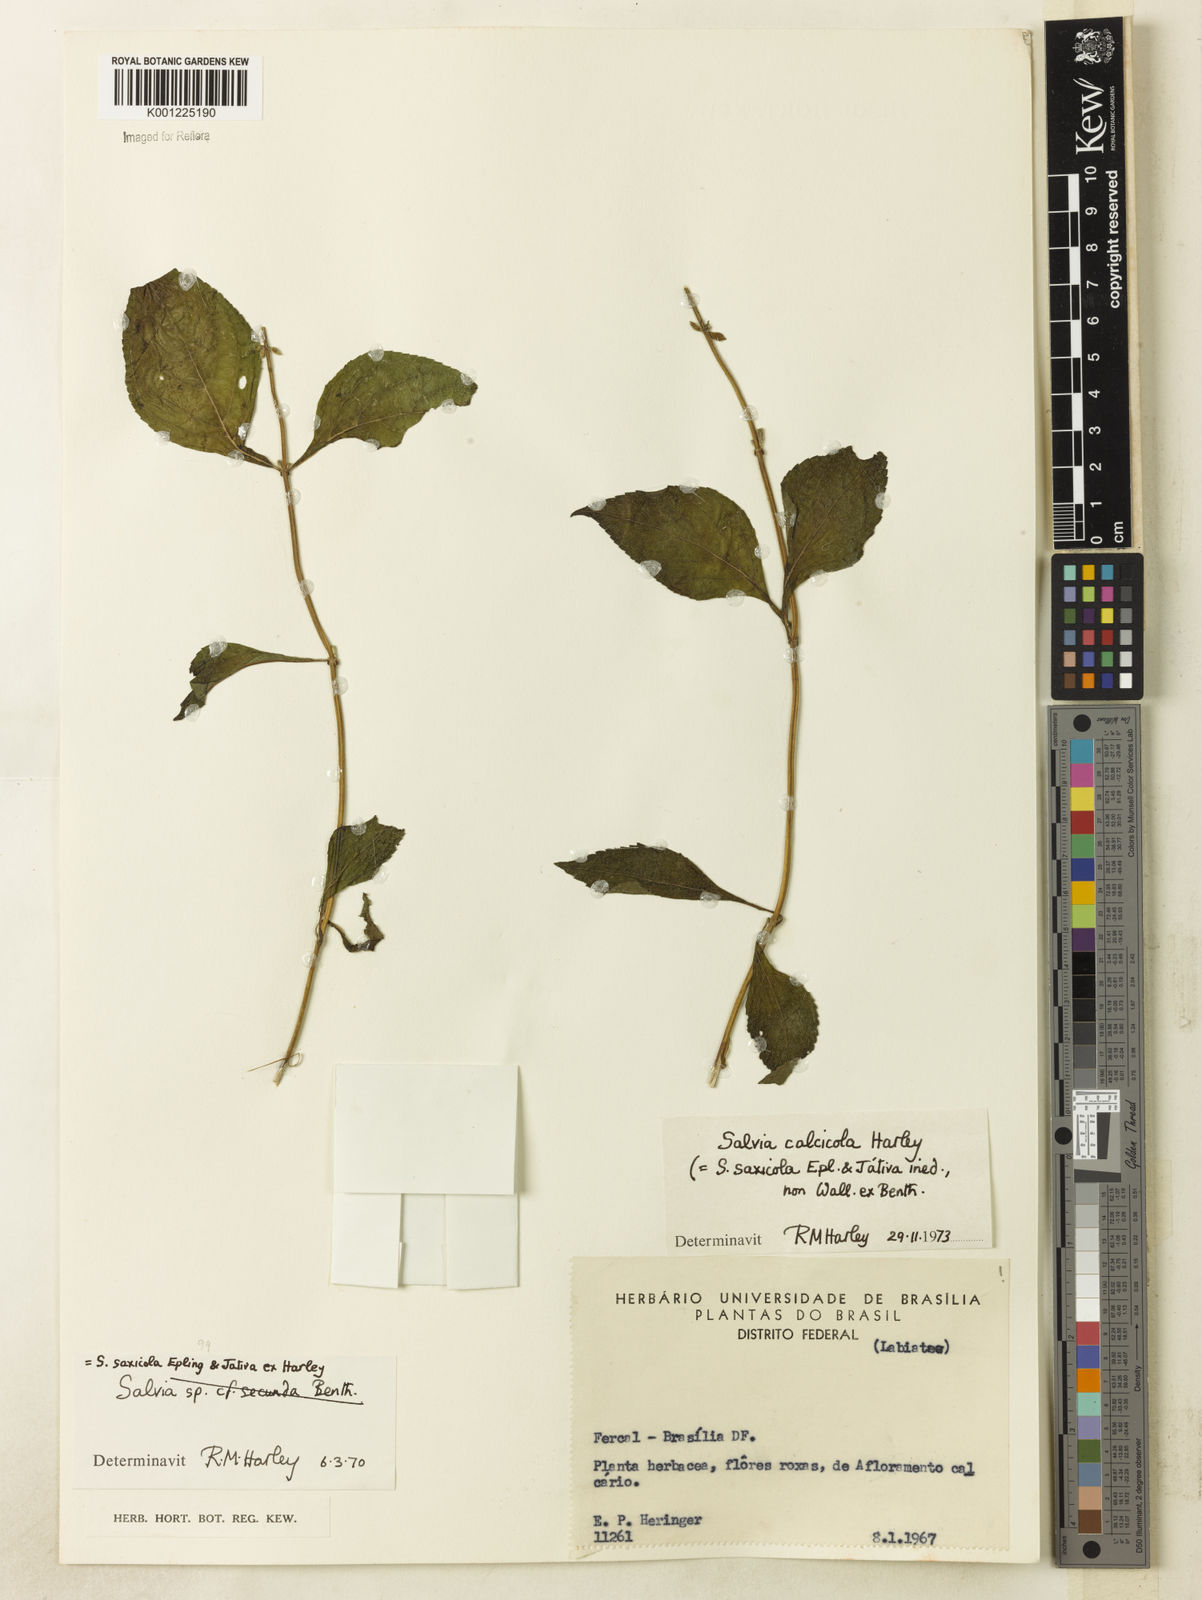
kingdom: Plantae
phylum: Tracheophyta
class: Magnoliopsida
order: Lamiales
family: Lamiaceae
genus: Salvia
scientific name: Salvia calcicola
